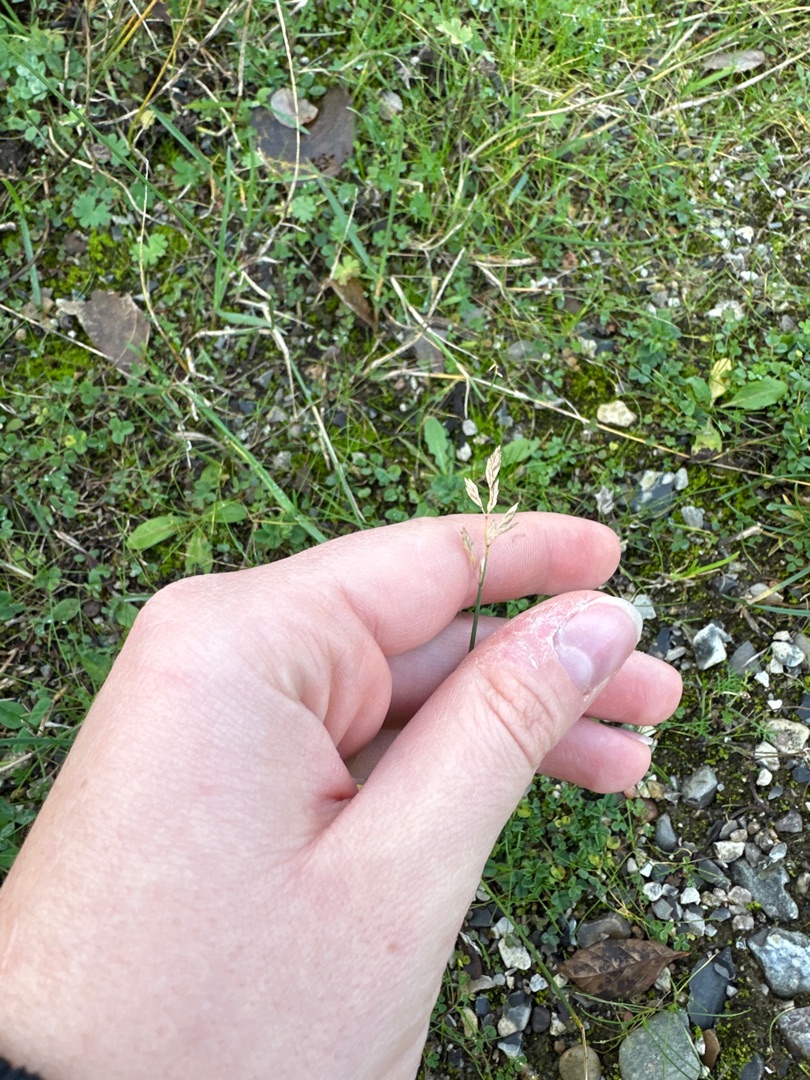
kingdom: Plantae
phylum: Tracheophyta
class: Liliopsida
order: Poales
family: Poaceae
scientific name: Poaceae
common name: Græsfamilien
